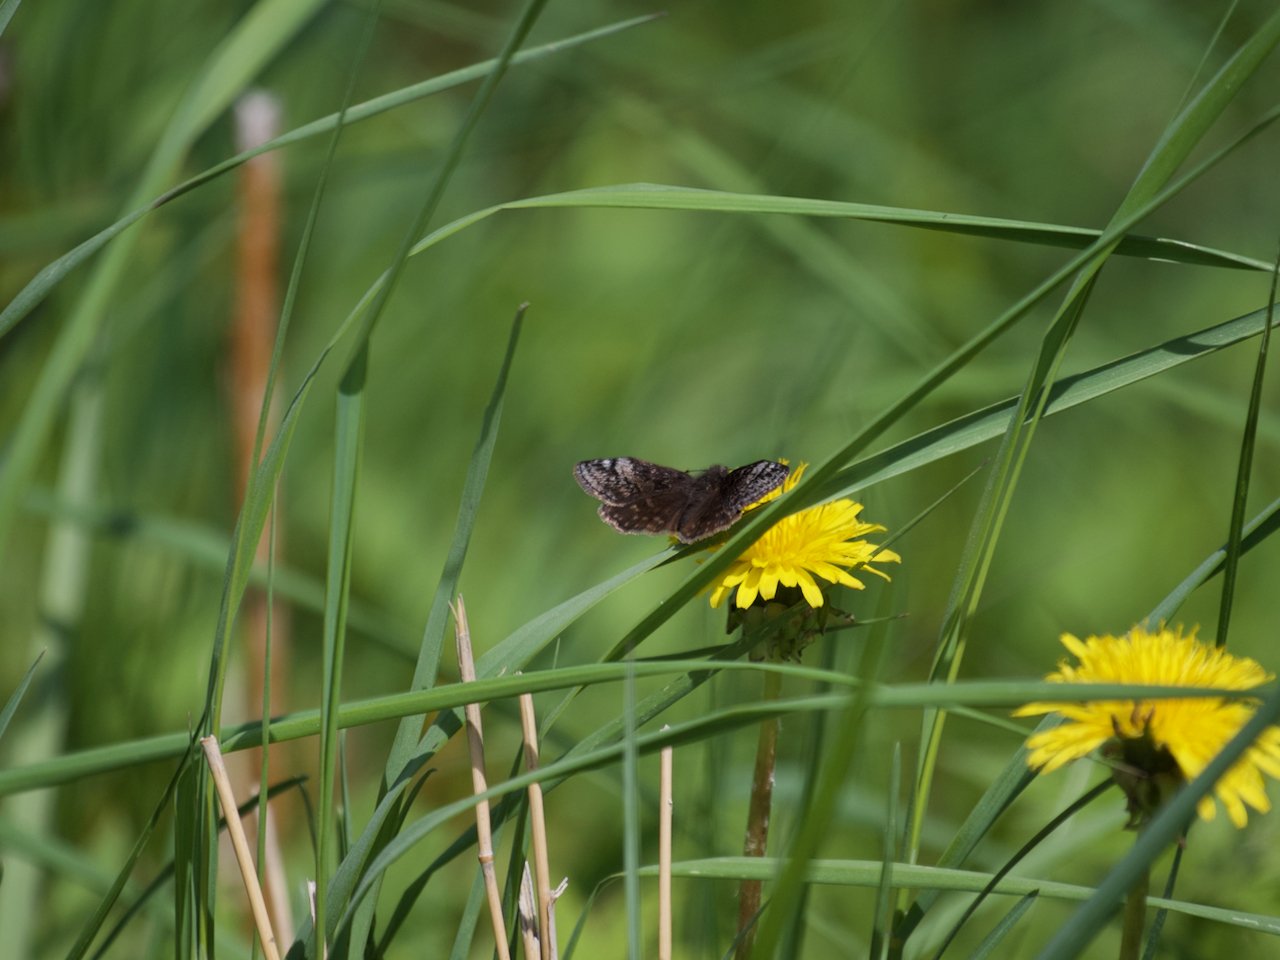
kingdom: Animalia
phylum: Arthropoda
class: Insecta
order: Lepidoptera
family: Hesperiidae
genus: Erynnis
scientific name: Erynnis icelus
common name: Dreamy Duskywing
